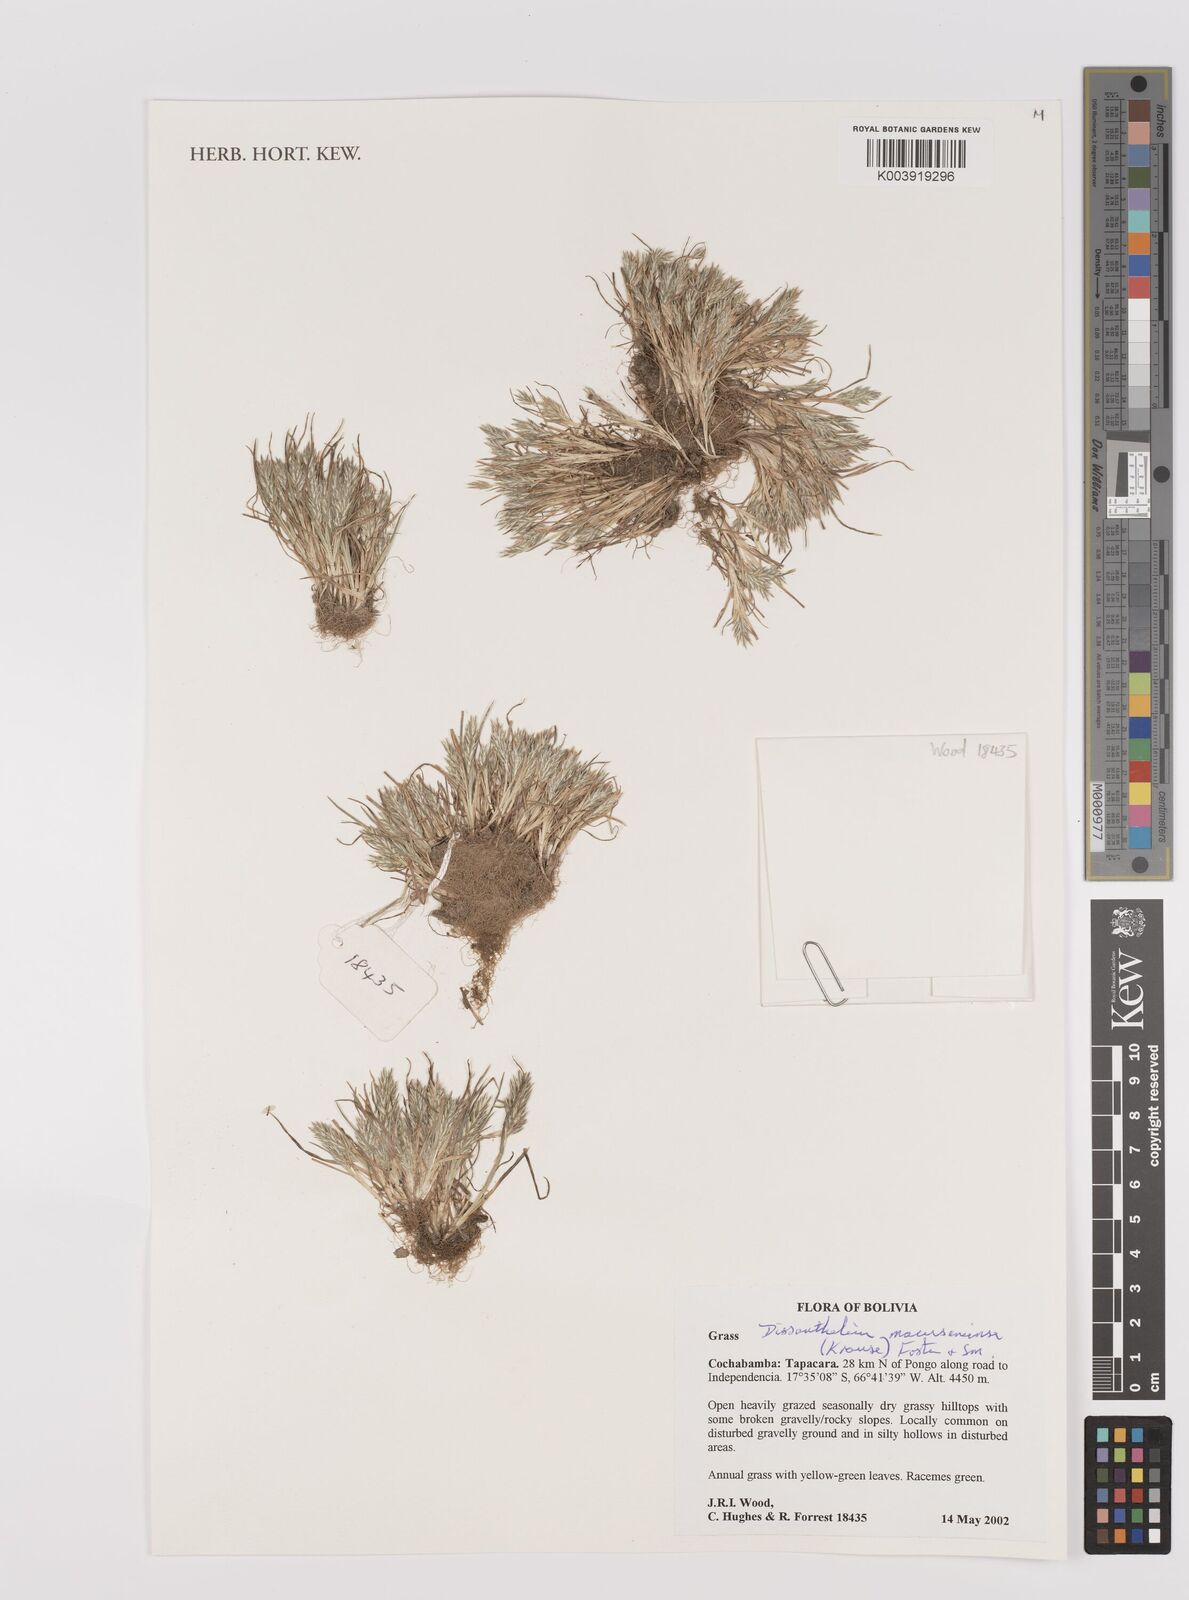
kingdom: Plantae
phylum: Tracheophyta
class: Liliopsida
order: Poales
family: Poaceae
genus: Poa
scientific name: Poa macusaniensis
